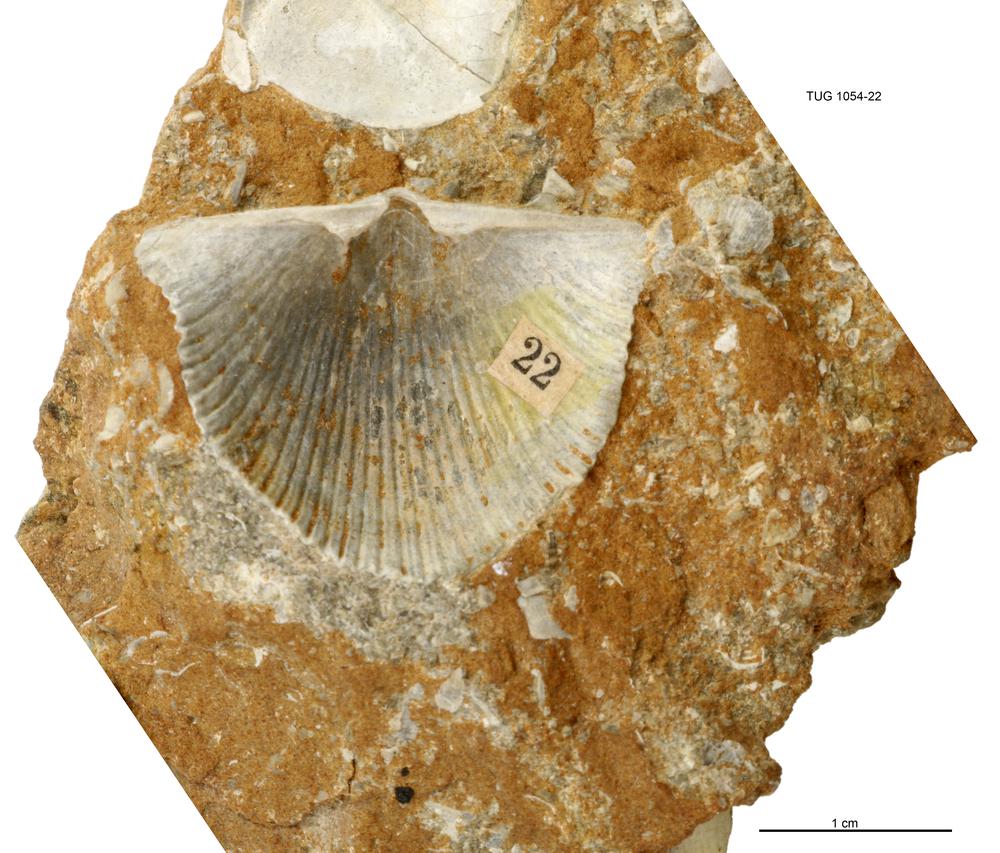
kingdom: Animalia
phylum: Brachiopoda
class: Rhynchonellata
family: Orthidae
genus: Cyrtonotella
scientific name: Cyrtonotella Orthis kuckersiana
